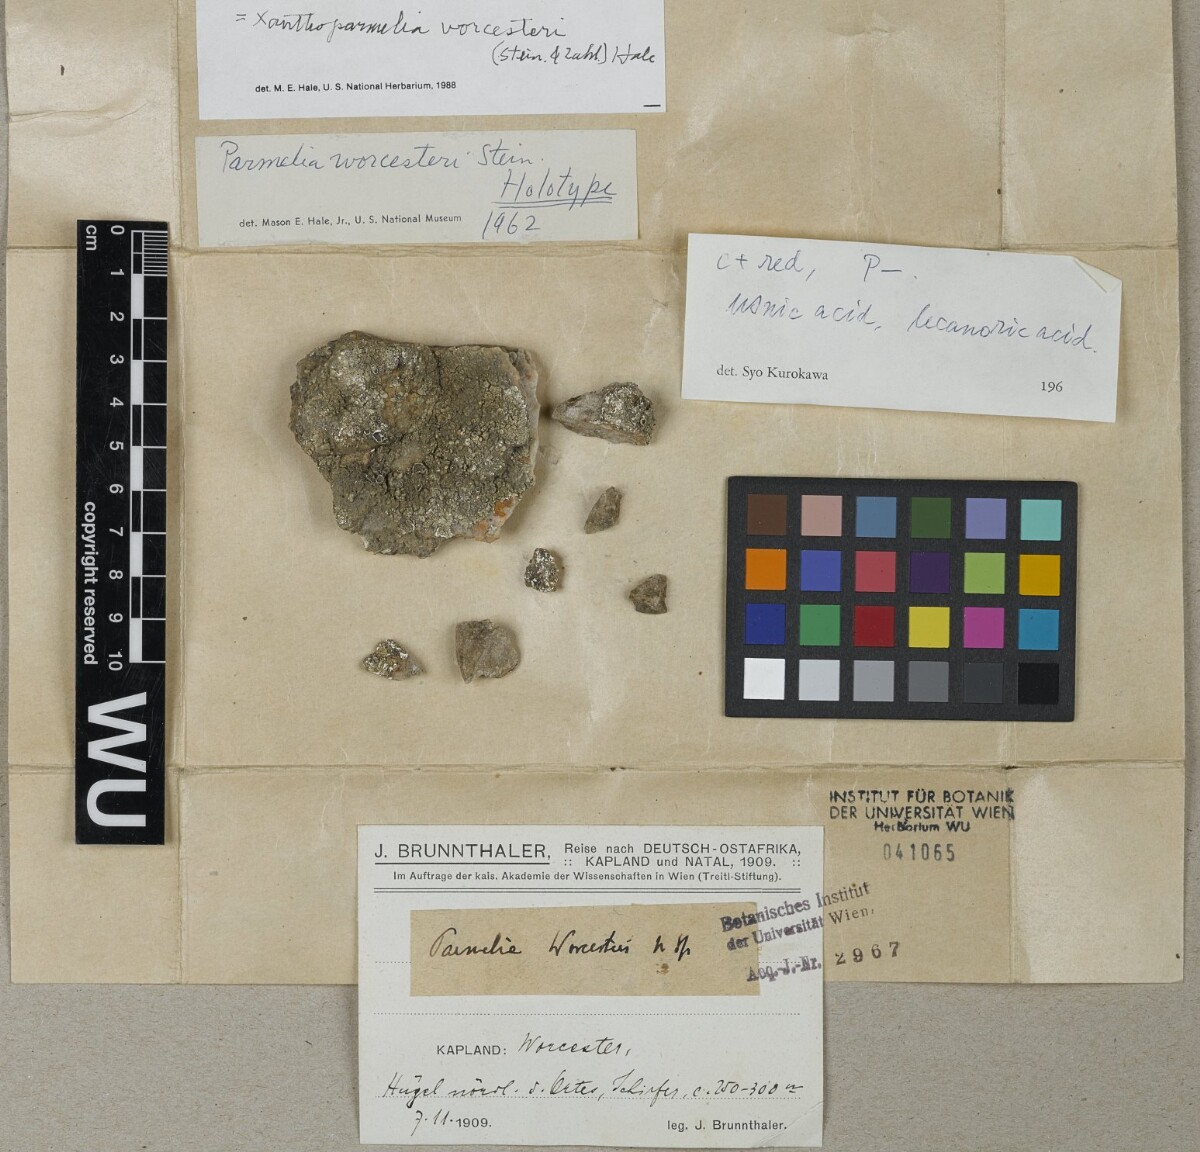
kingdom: Fungi
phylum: Ascomycota
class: Lecanoromycetes
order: Lecanorales
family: Parmeliaceae
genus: Parmelia
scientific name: Parmelia
